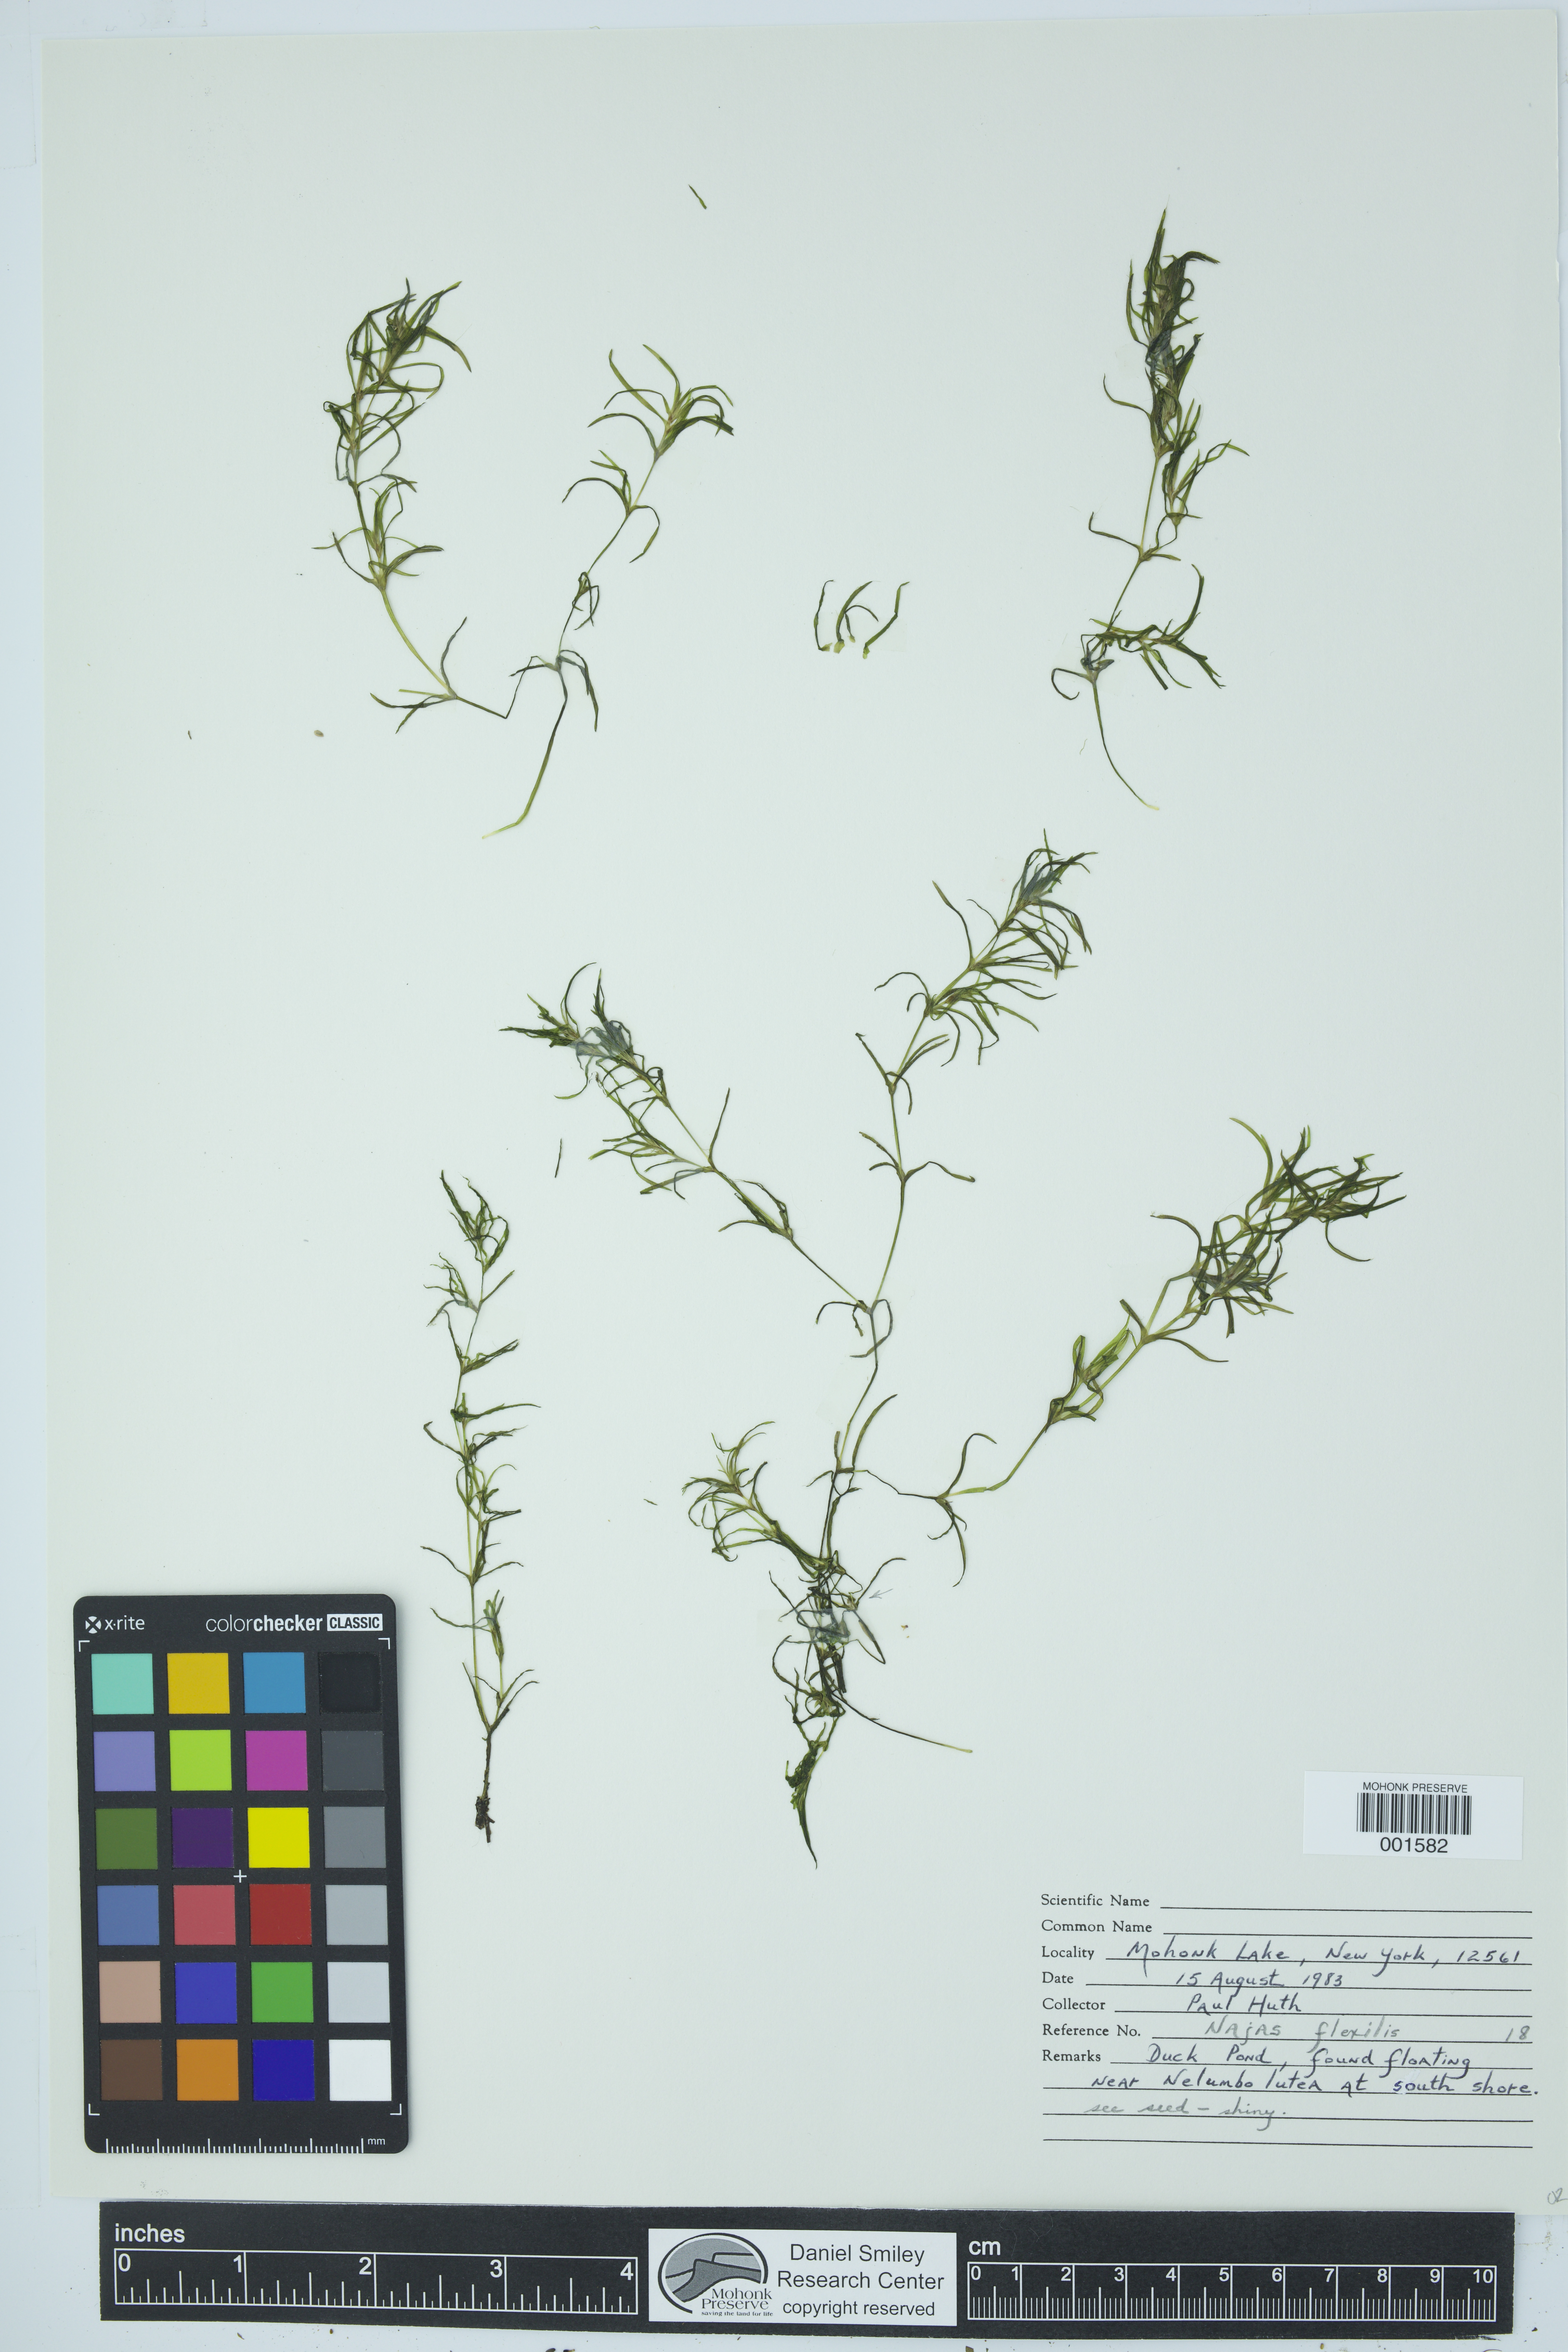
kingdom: Animalia
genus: Naja
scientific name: Naja
